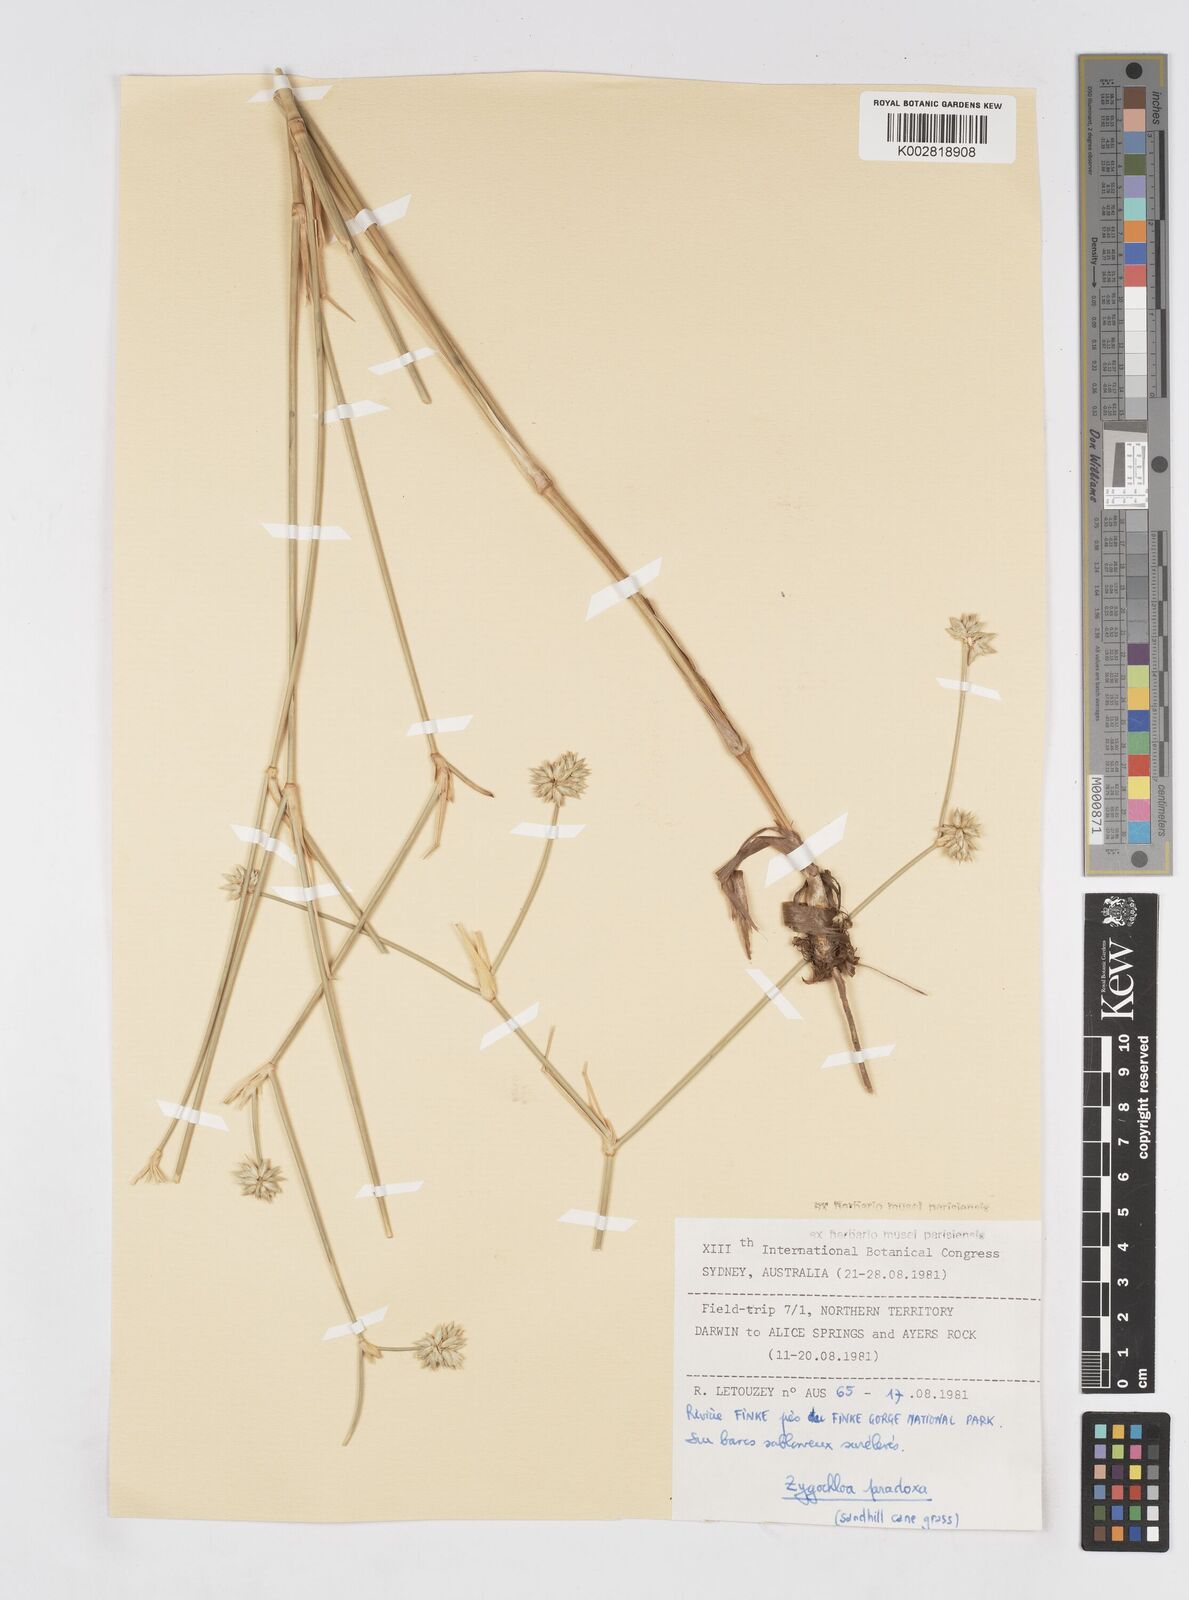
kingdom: Plantae
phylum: Tracheophyta
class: Liliopsida
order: Poales
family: Poaceae
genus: Zygochloa
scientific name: Zygochloa paradoxa
